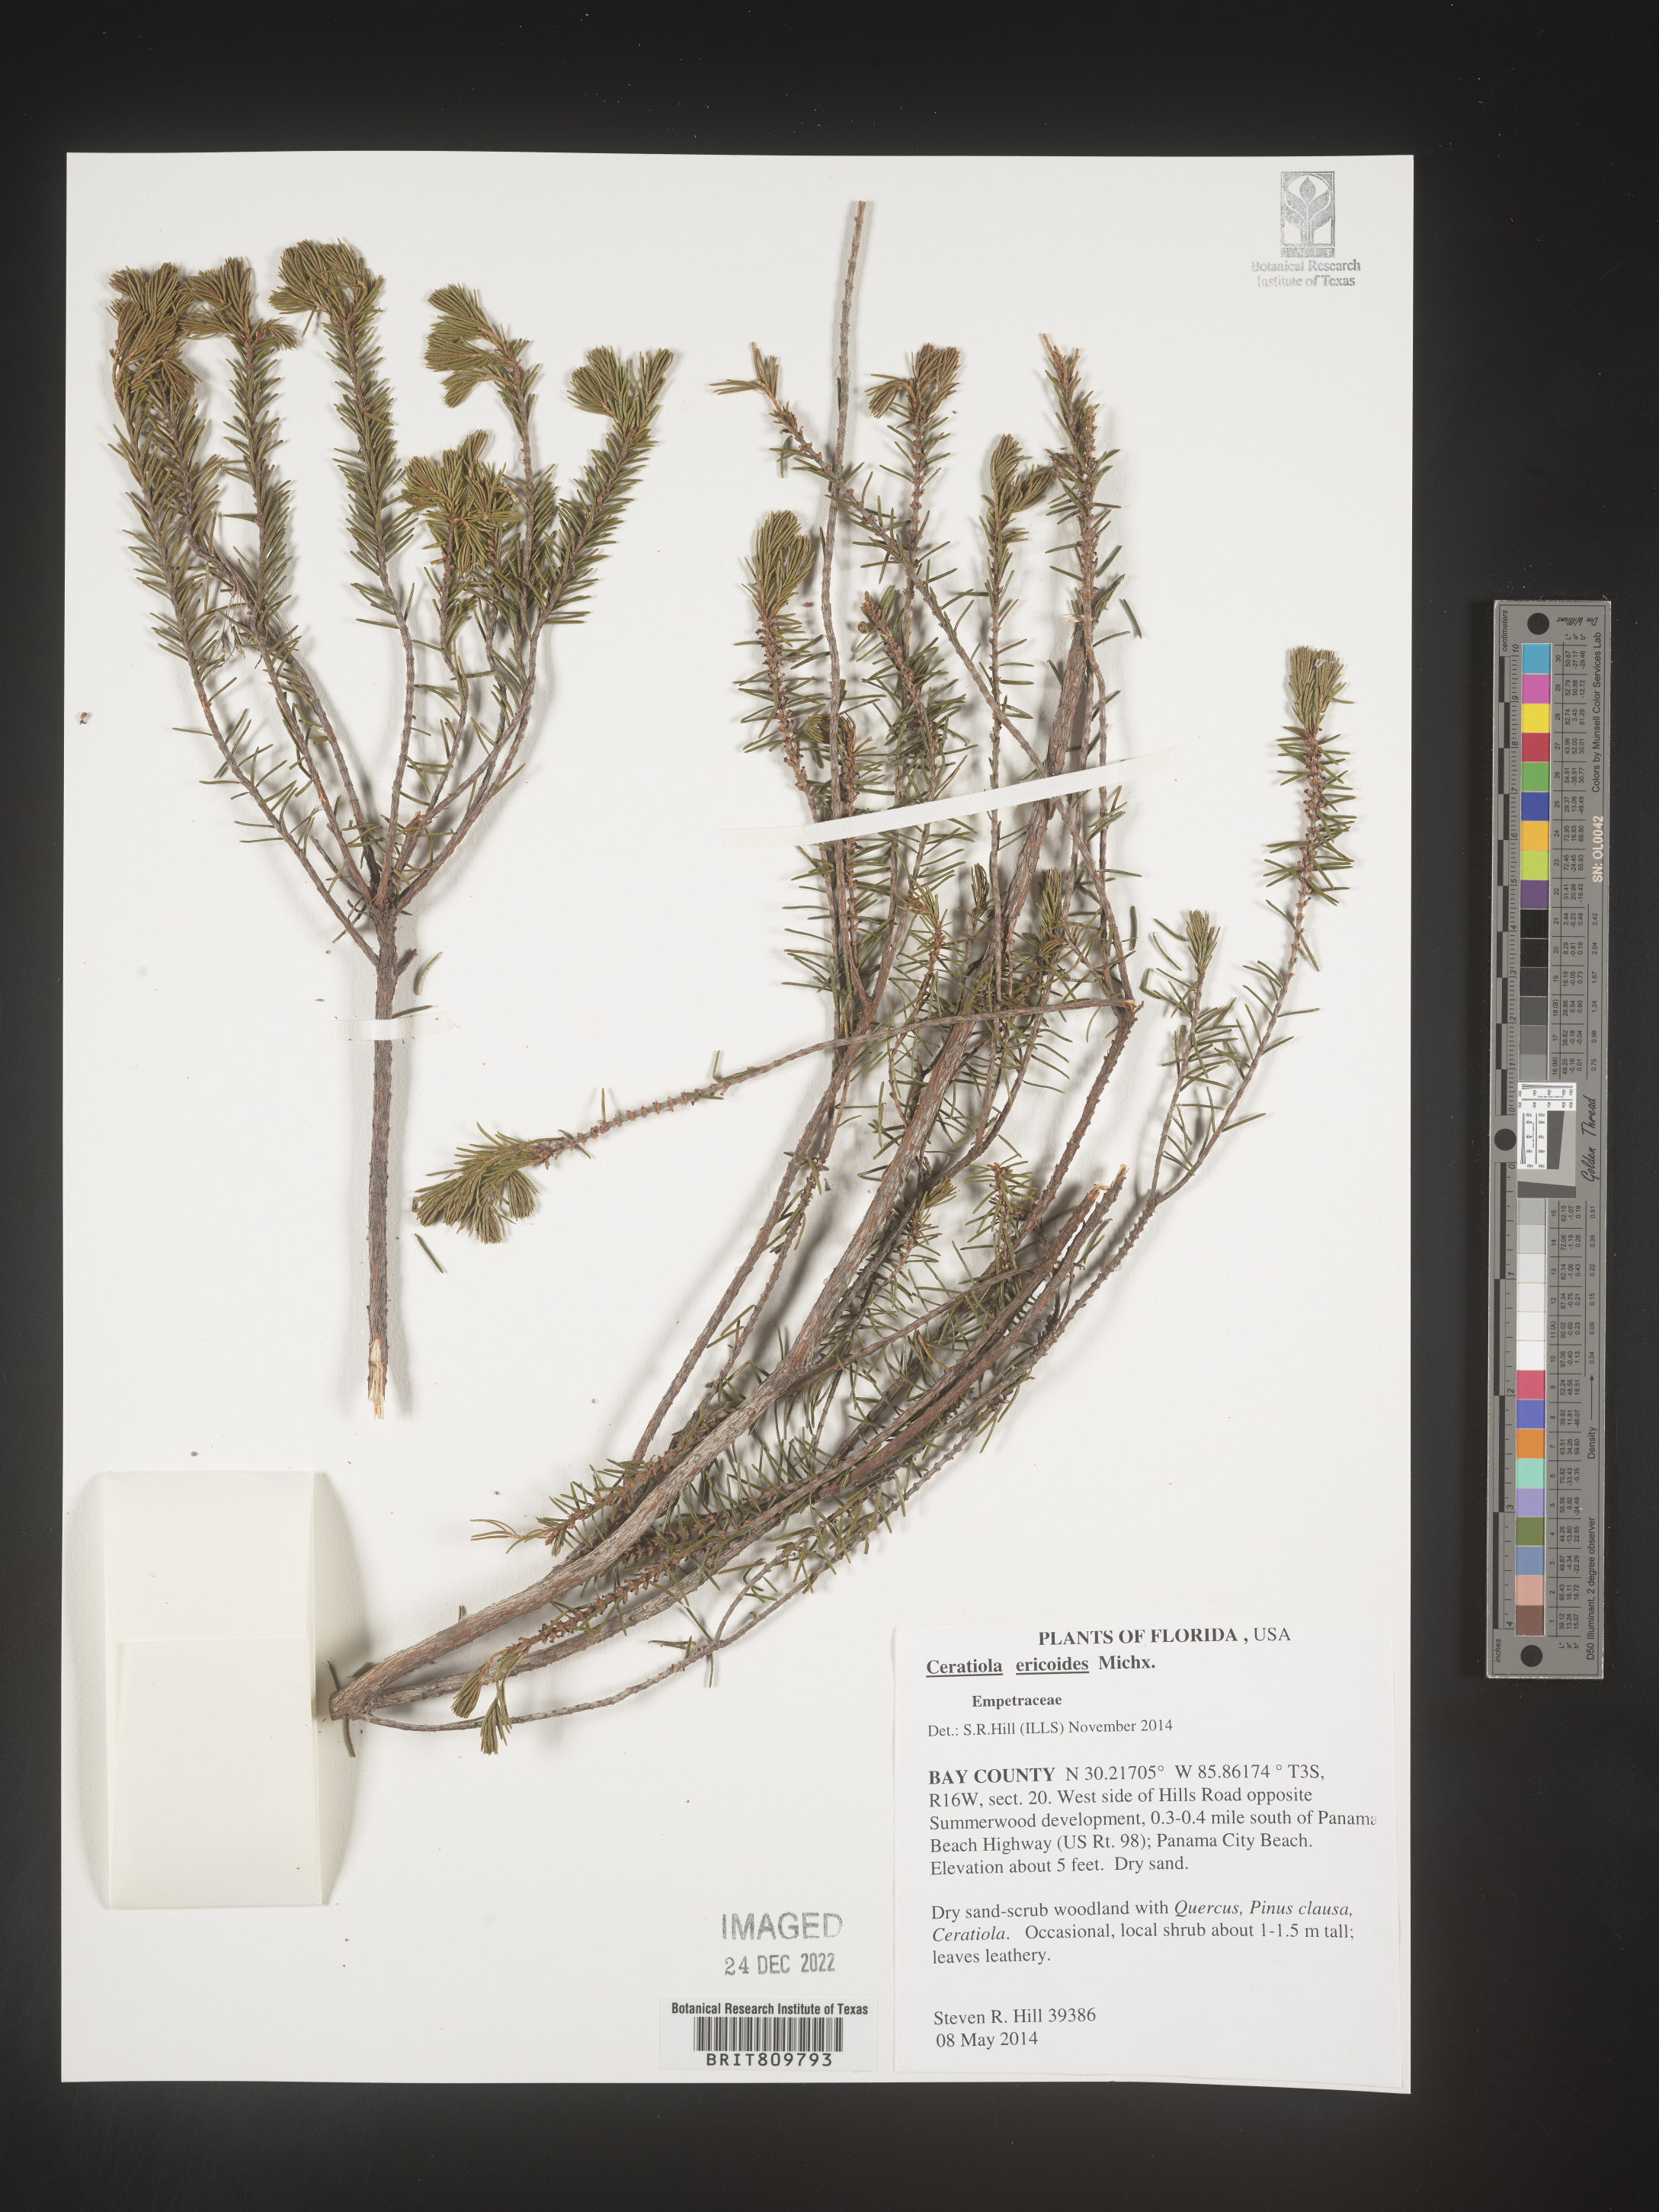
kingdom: Plantae
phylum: Tracheophyta
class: Magnoliopsida
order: Ericales
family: Ericaceae
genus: Ceratiola
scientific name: Ceratiola ericoides
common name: Sandhill-rosemary
